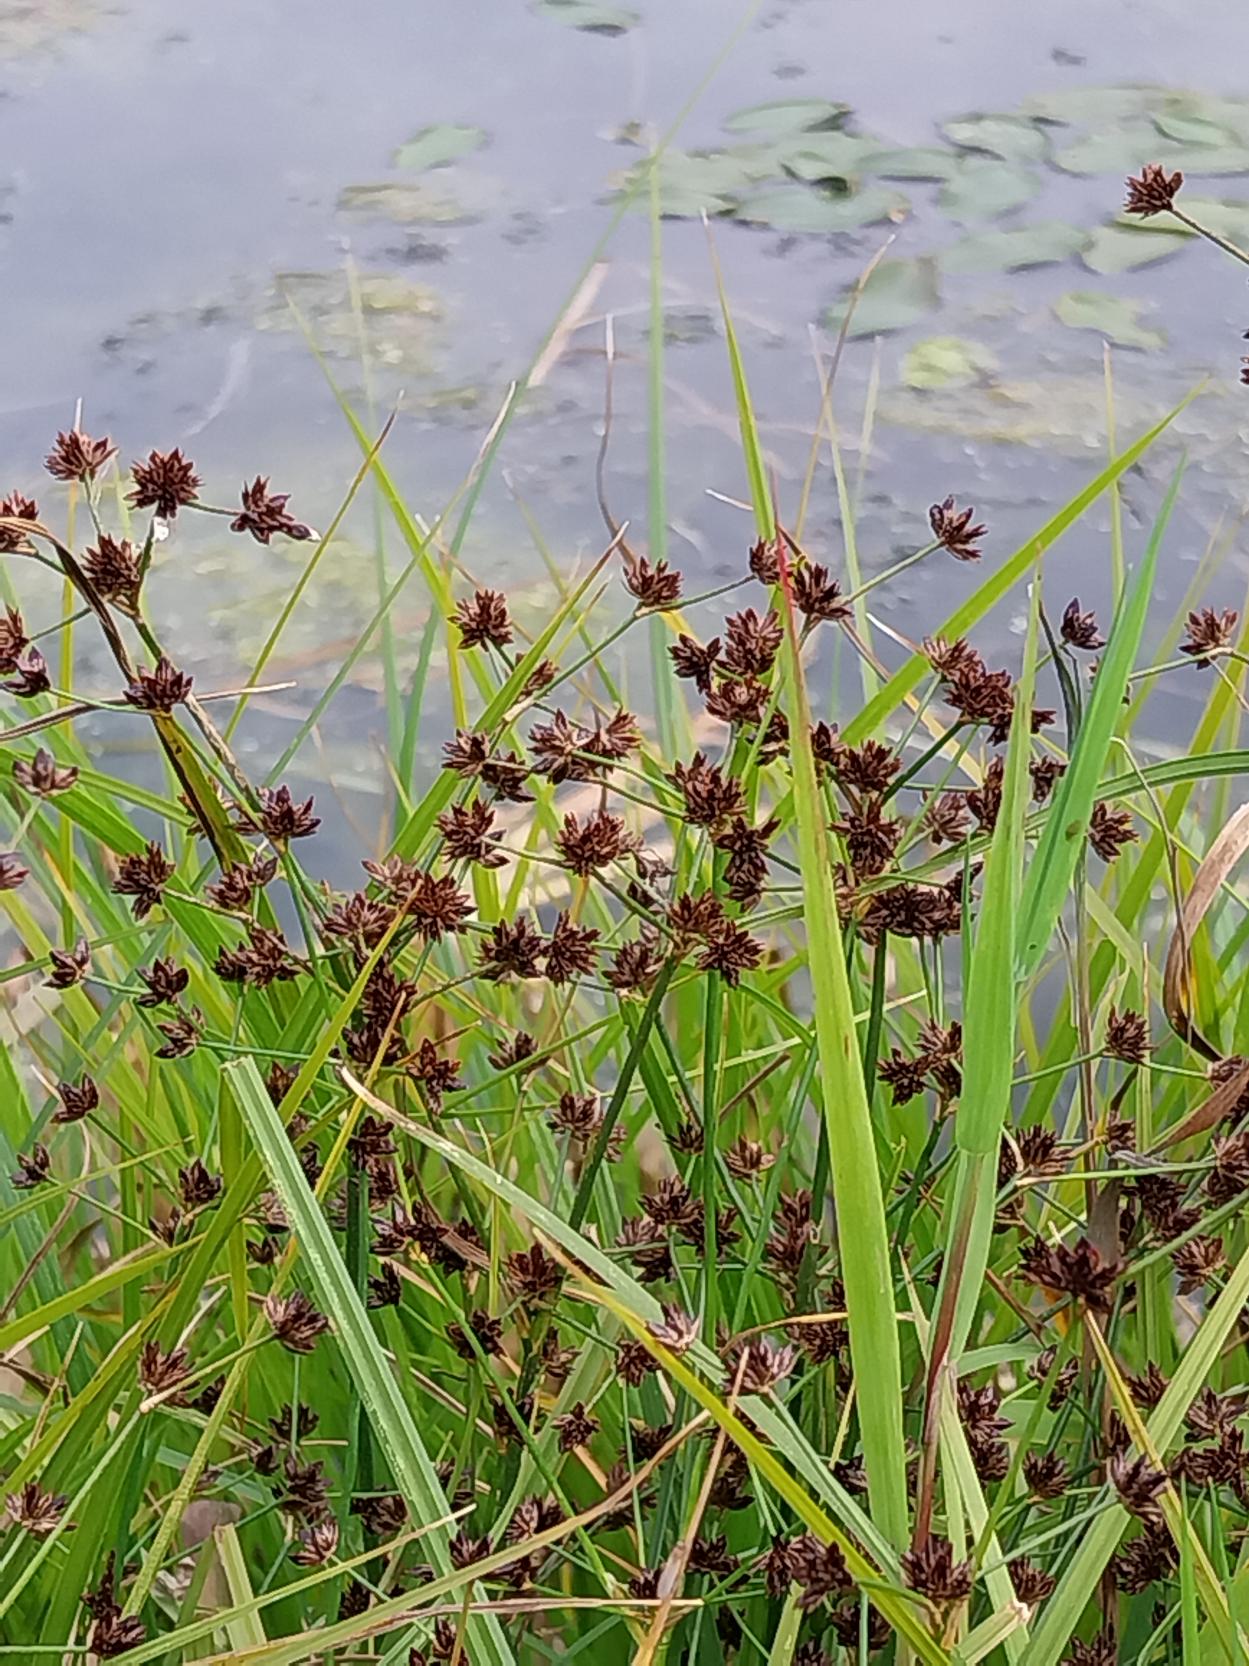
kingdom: Plantae
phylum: Tracheophyta
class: Liliopsida
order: Poales
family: Juncaceae
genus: Juncus
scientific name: Juncus articulatus
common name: Glanskapslet siv
